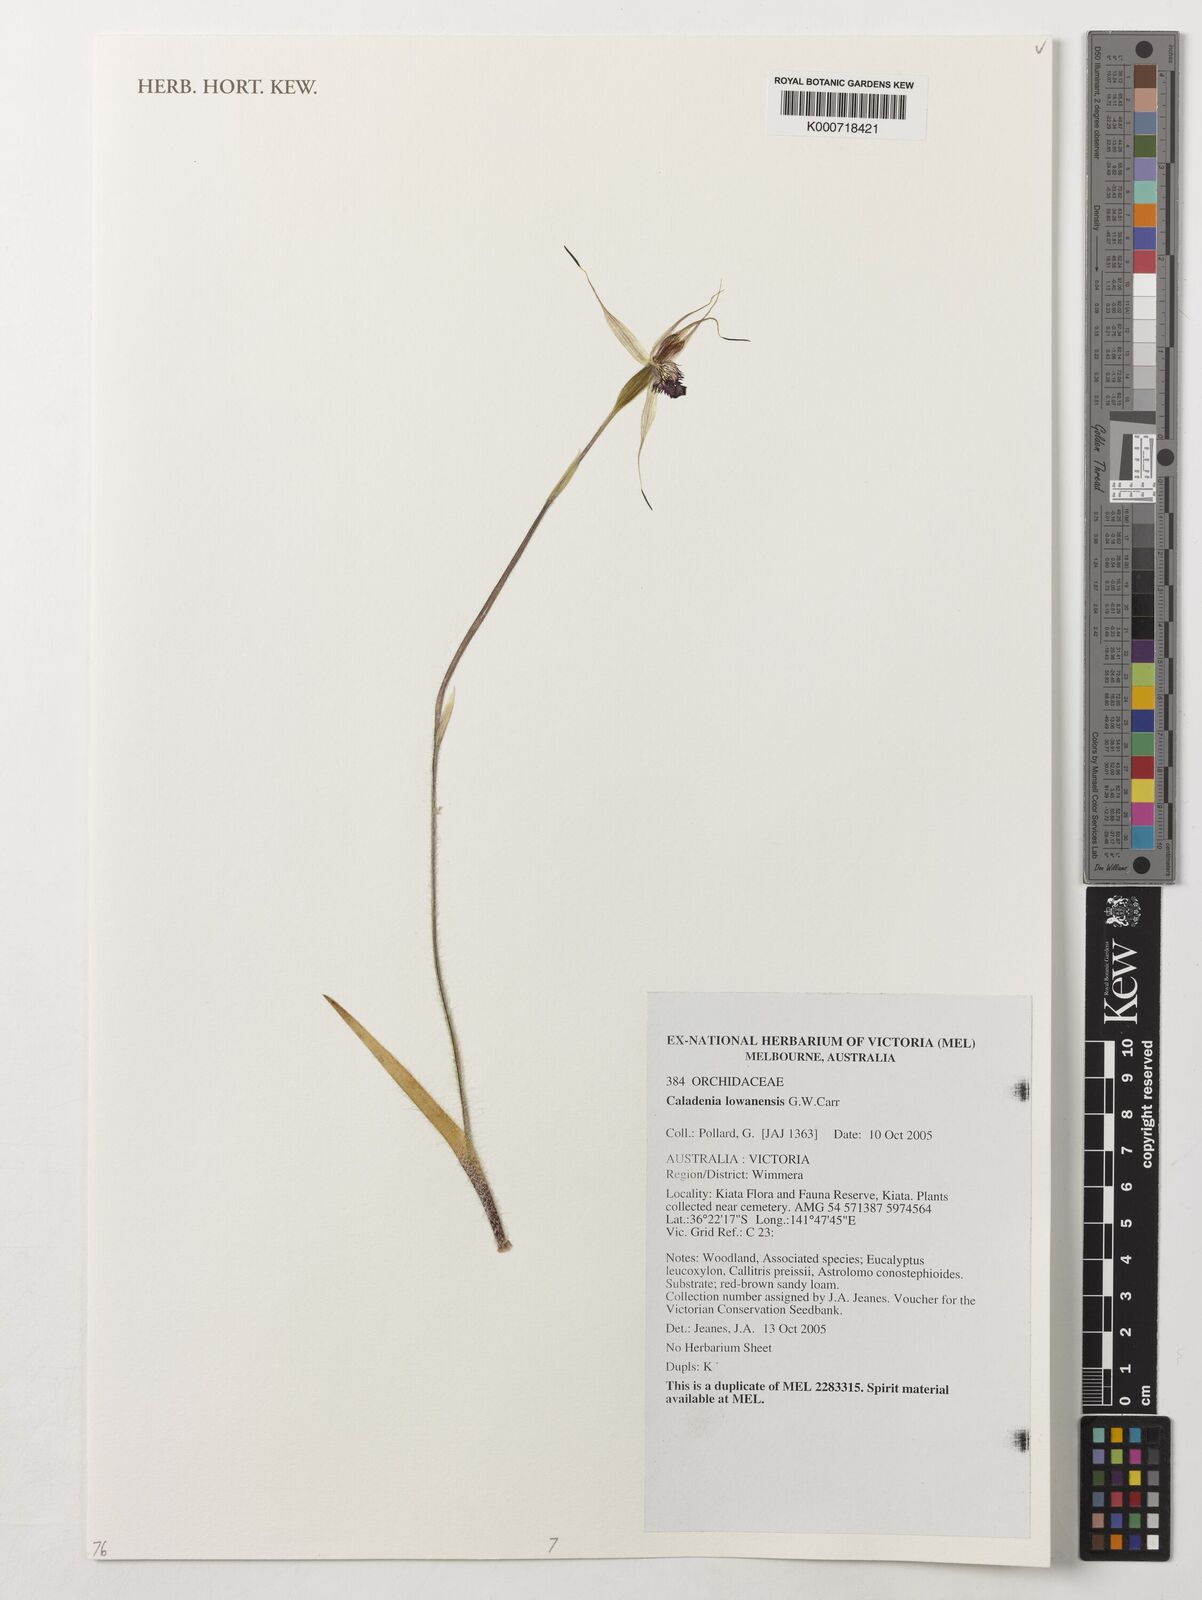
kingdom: Plantae
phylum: Tracheophyta
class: Liliopsida
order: Asparagales
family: Orchidaceae
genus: Caladenia
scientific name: Caladenia lowanensis
